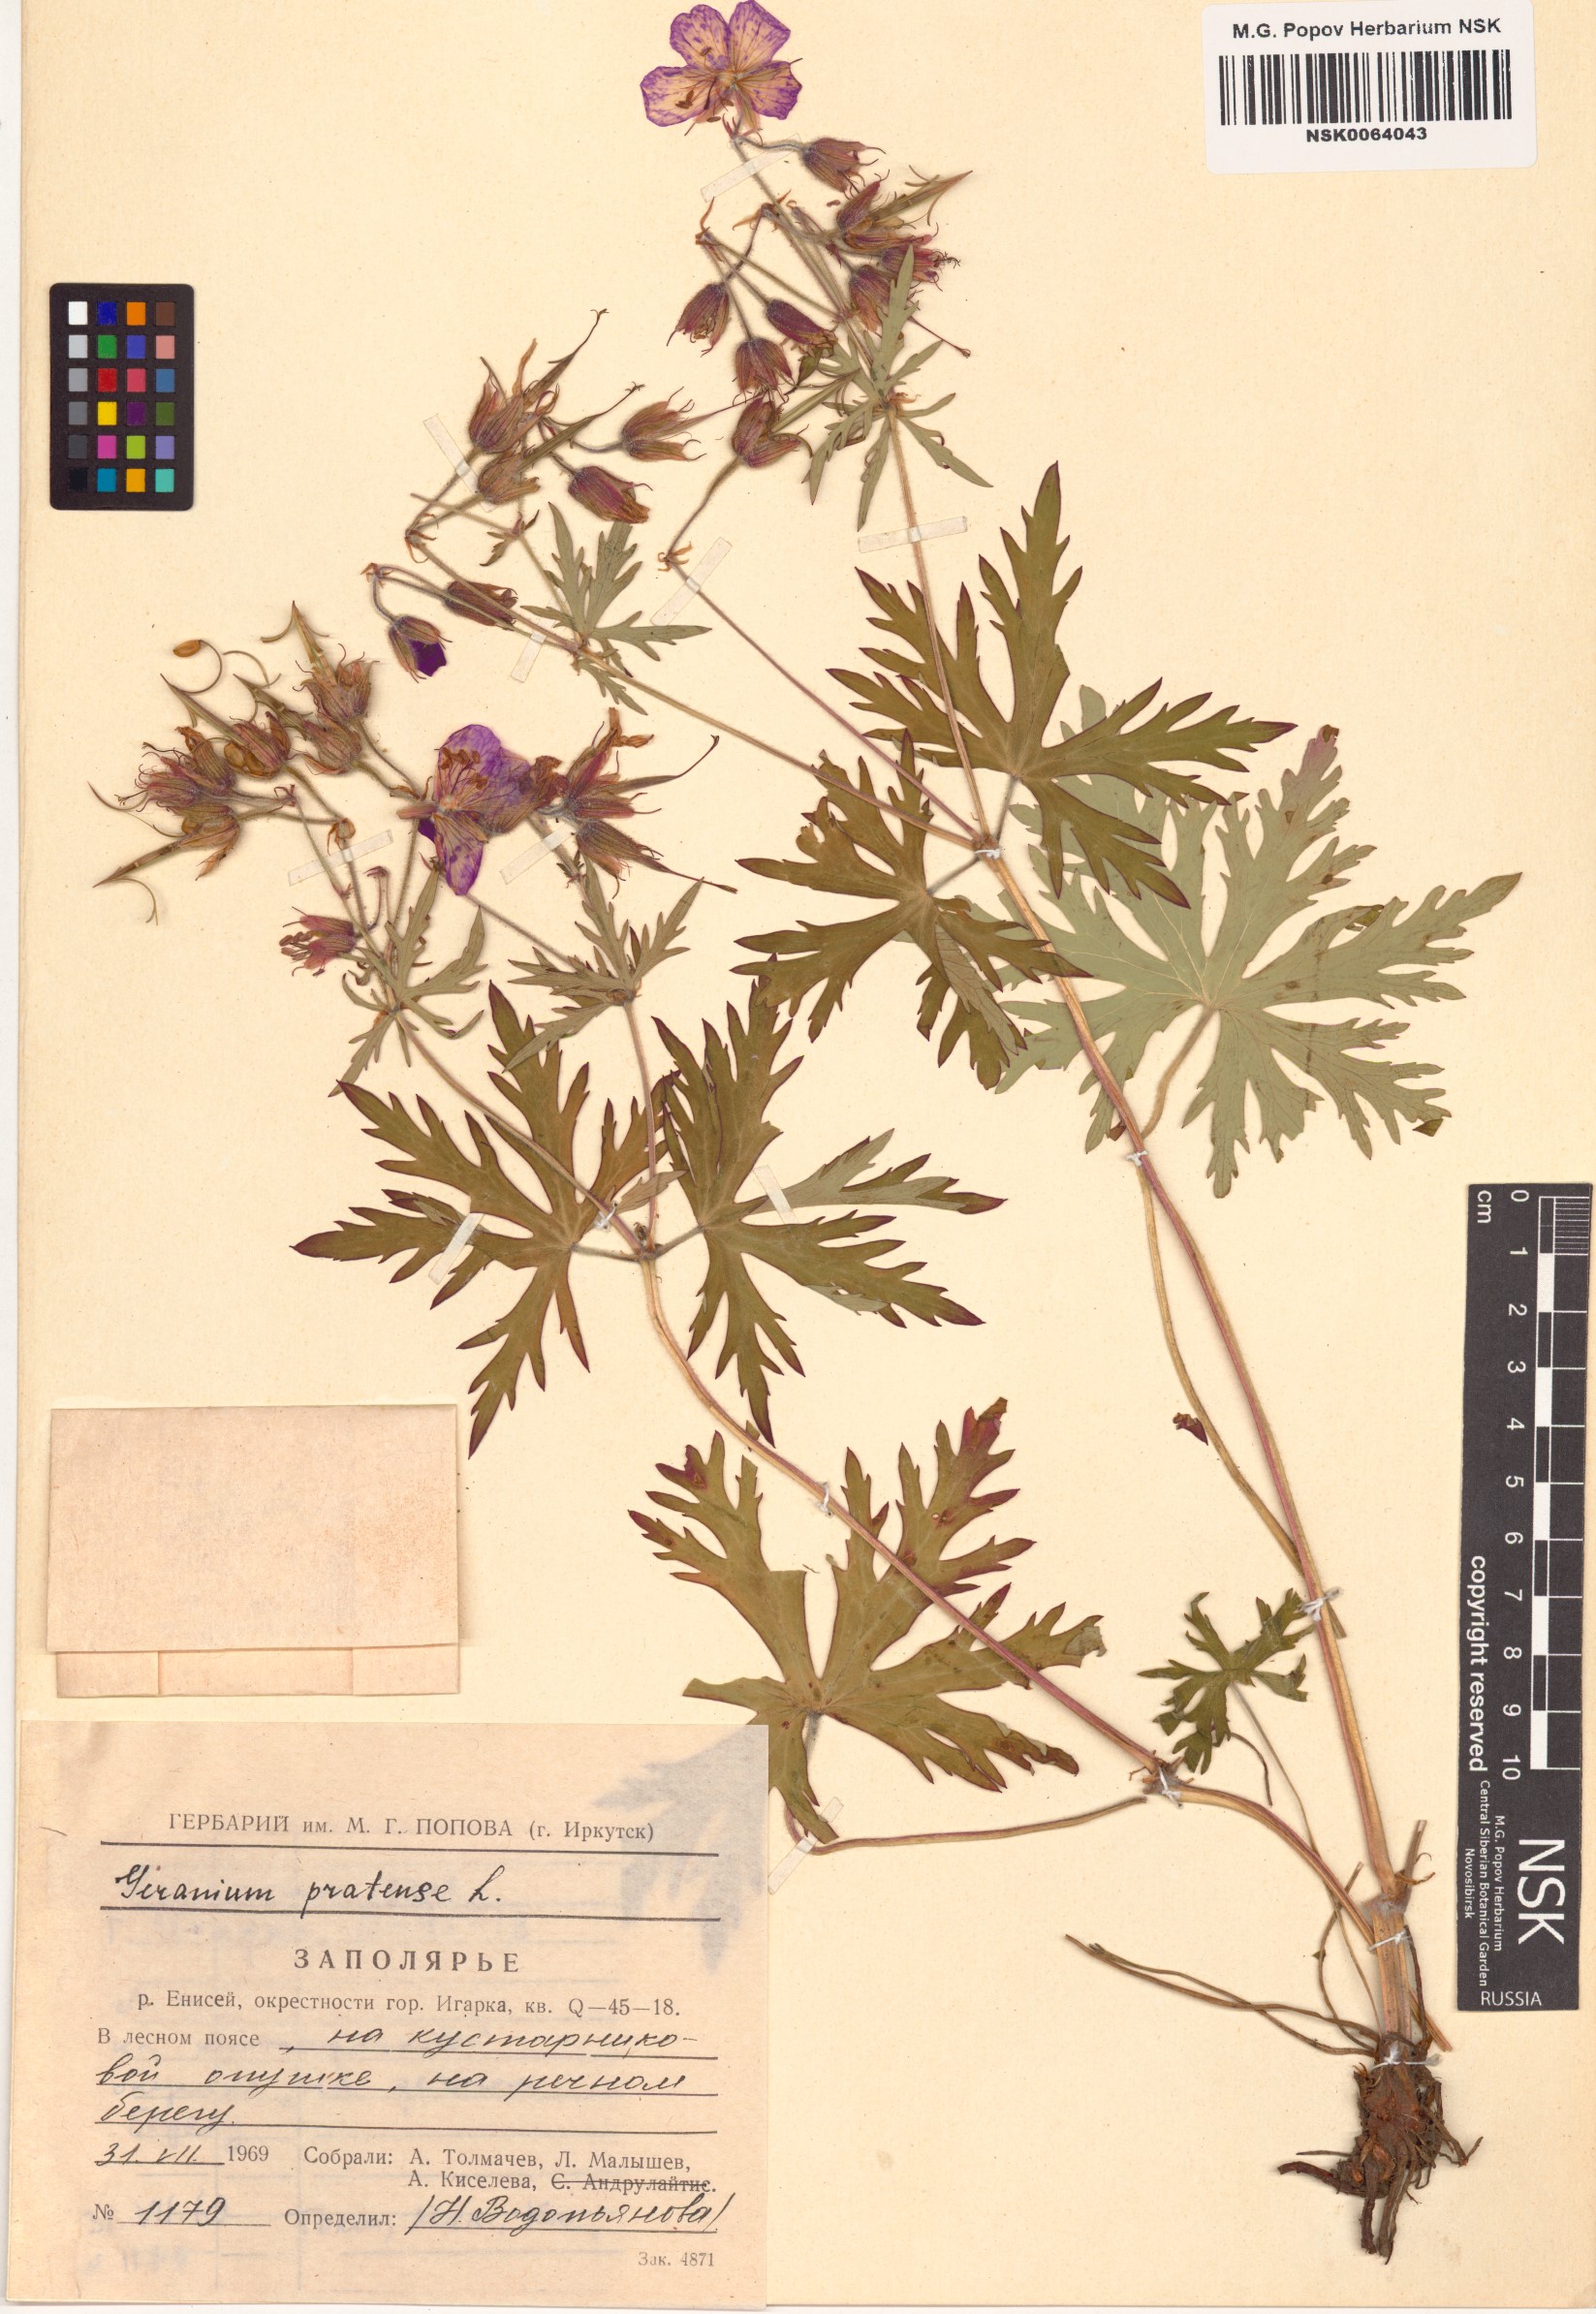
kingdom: Plantae
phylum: Tracheophyta
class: Magnoliopsida
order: Geraniales
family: Geraniaceae
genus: Geranium
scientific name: Geranium pratense
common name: Meadow crane's-bill
